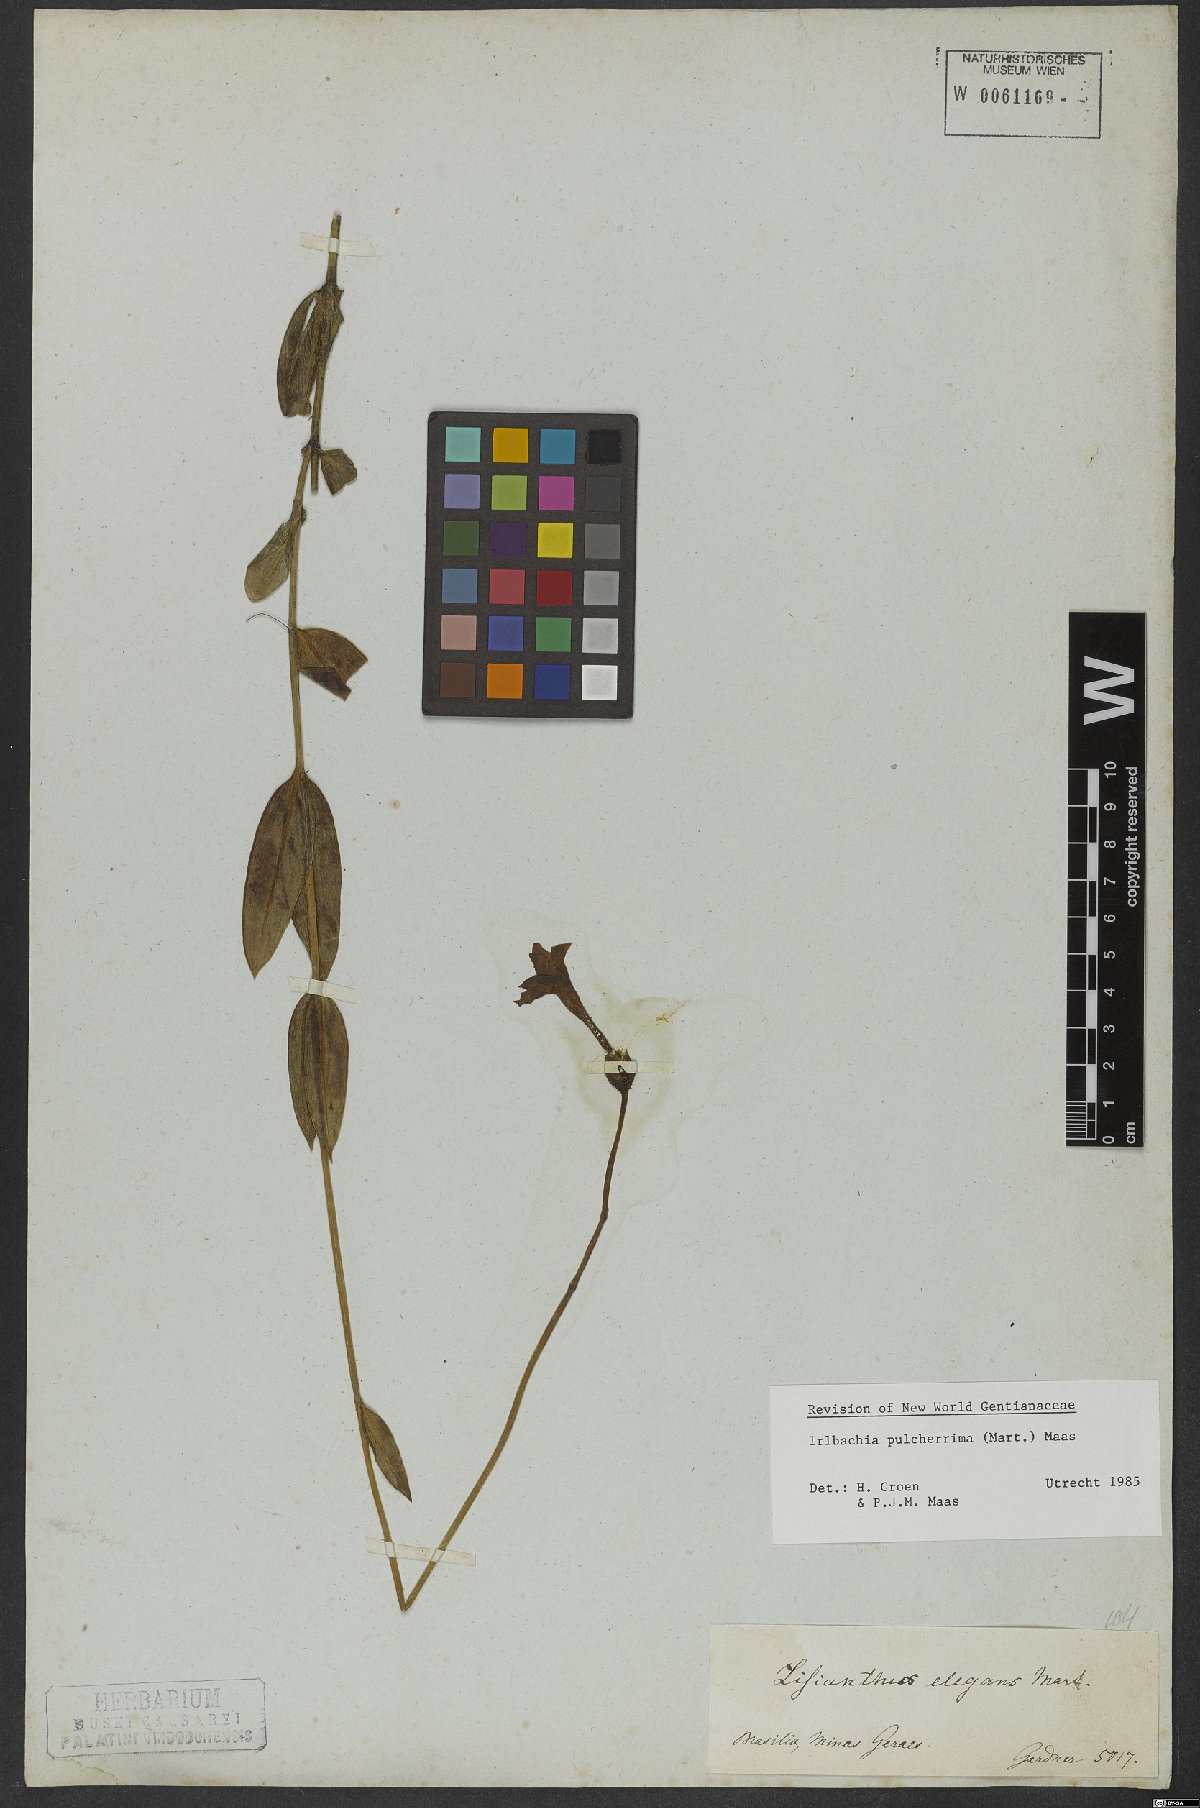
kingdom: Plantae
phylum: Tracheophyta
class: Magnoliopsida
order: Gentianales
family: Gentianaceae
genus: Calolisianthus
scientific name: Calolisianthus pulcherrimus
